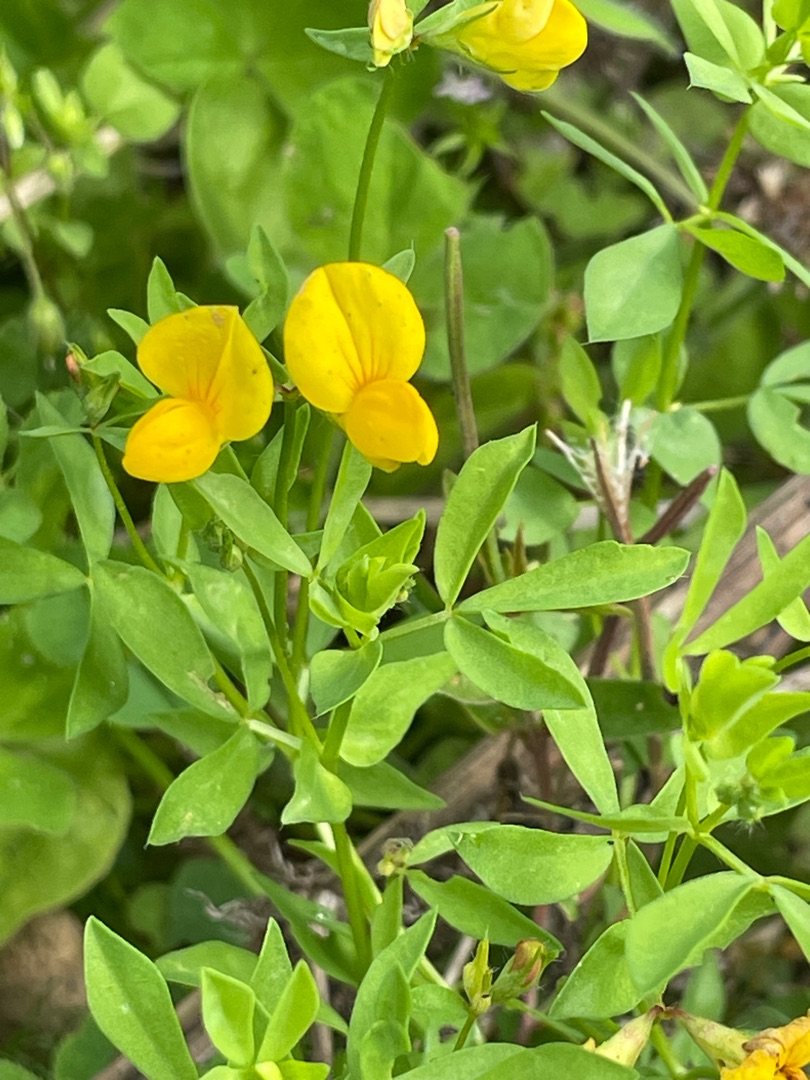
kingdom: Plantae
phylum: Tracheophyta
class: Magnoliopsida
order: Fabales
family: Fabaceae
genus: Lotus
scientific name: Lotus corniculatus
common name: Almindelig kællingetand
